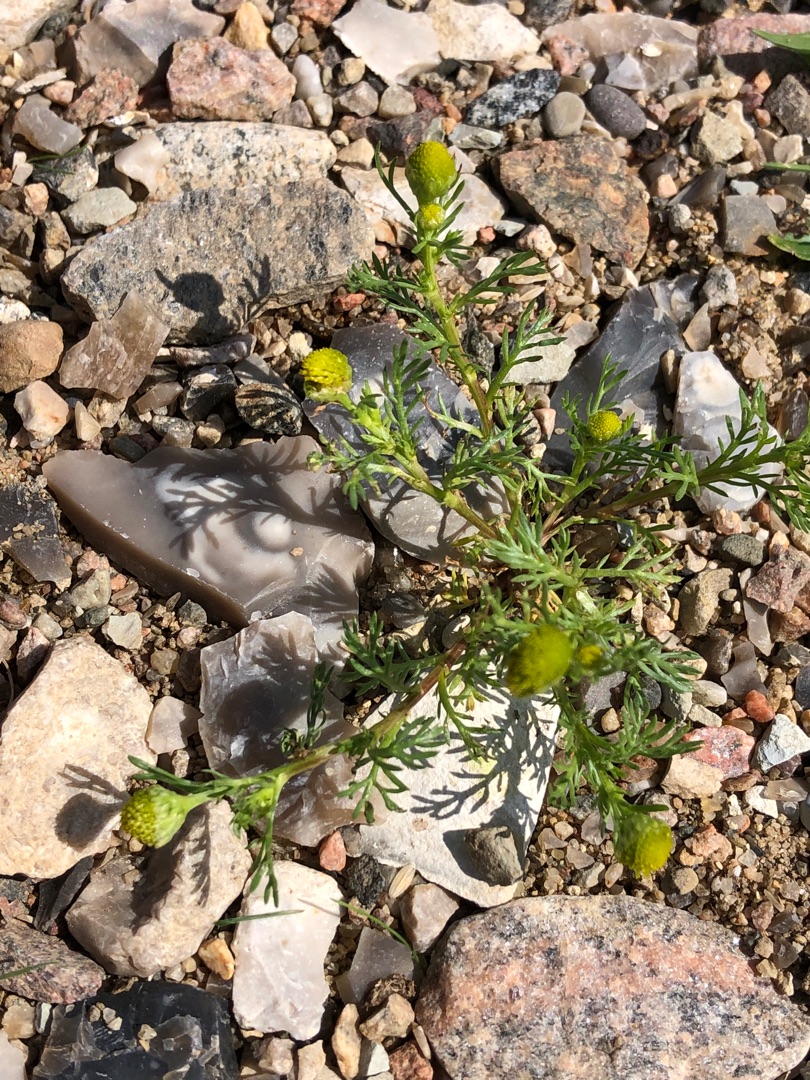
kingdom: Plantae
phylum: Tracheophyta
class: Magnoliopsida
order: Asterales
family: Asteraceae
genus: Matricaria
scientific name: Matricaria discoidea
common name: Skive-kamille
